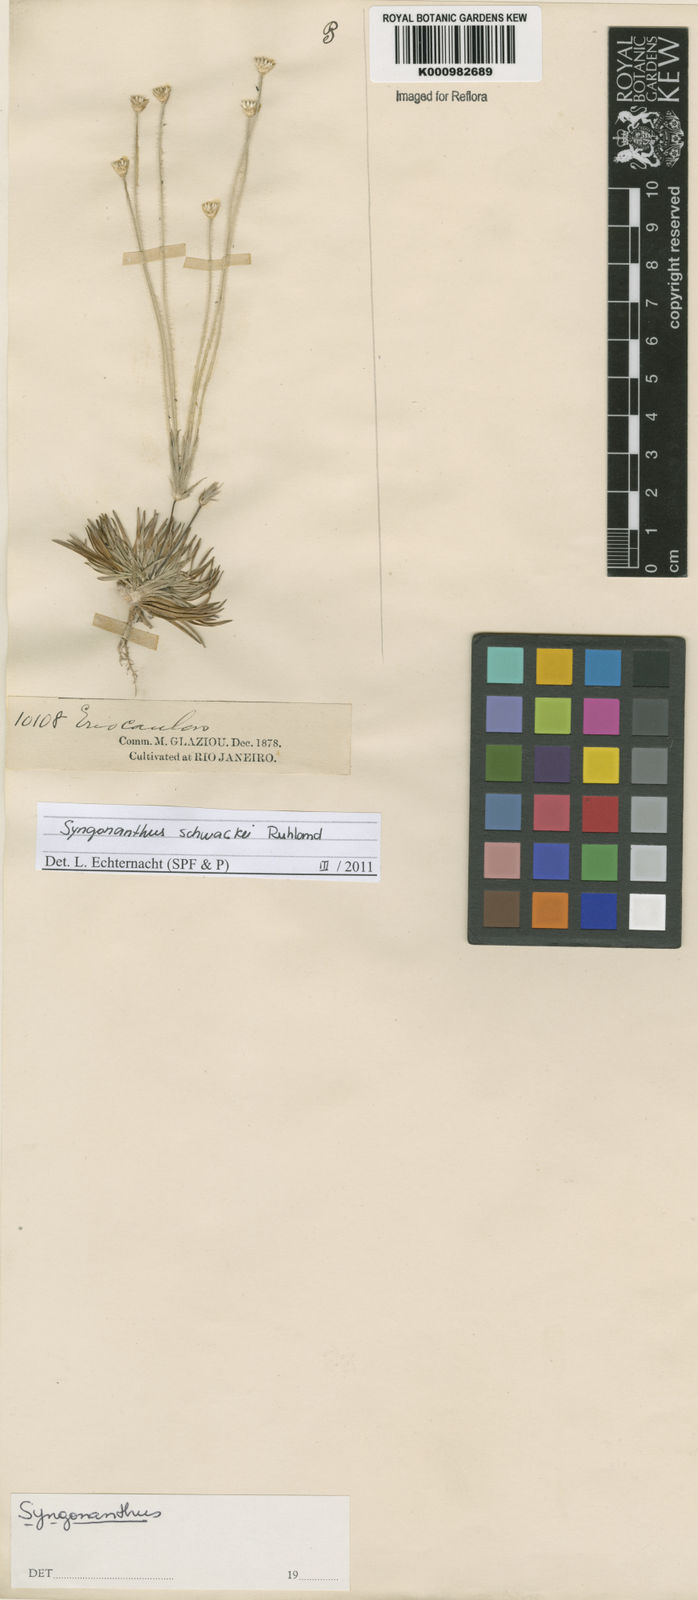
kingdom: Plantae
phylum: Tracheophyta
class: Liliopsida
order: Poales
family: Eriocaulaceae
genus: Syngonanthus
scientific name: Syngonanthus schwackei
